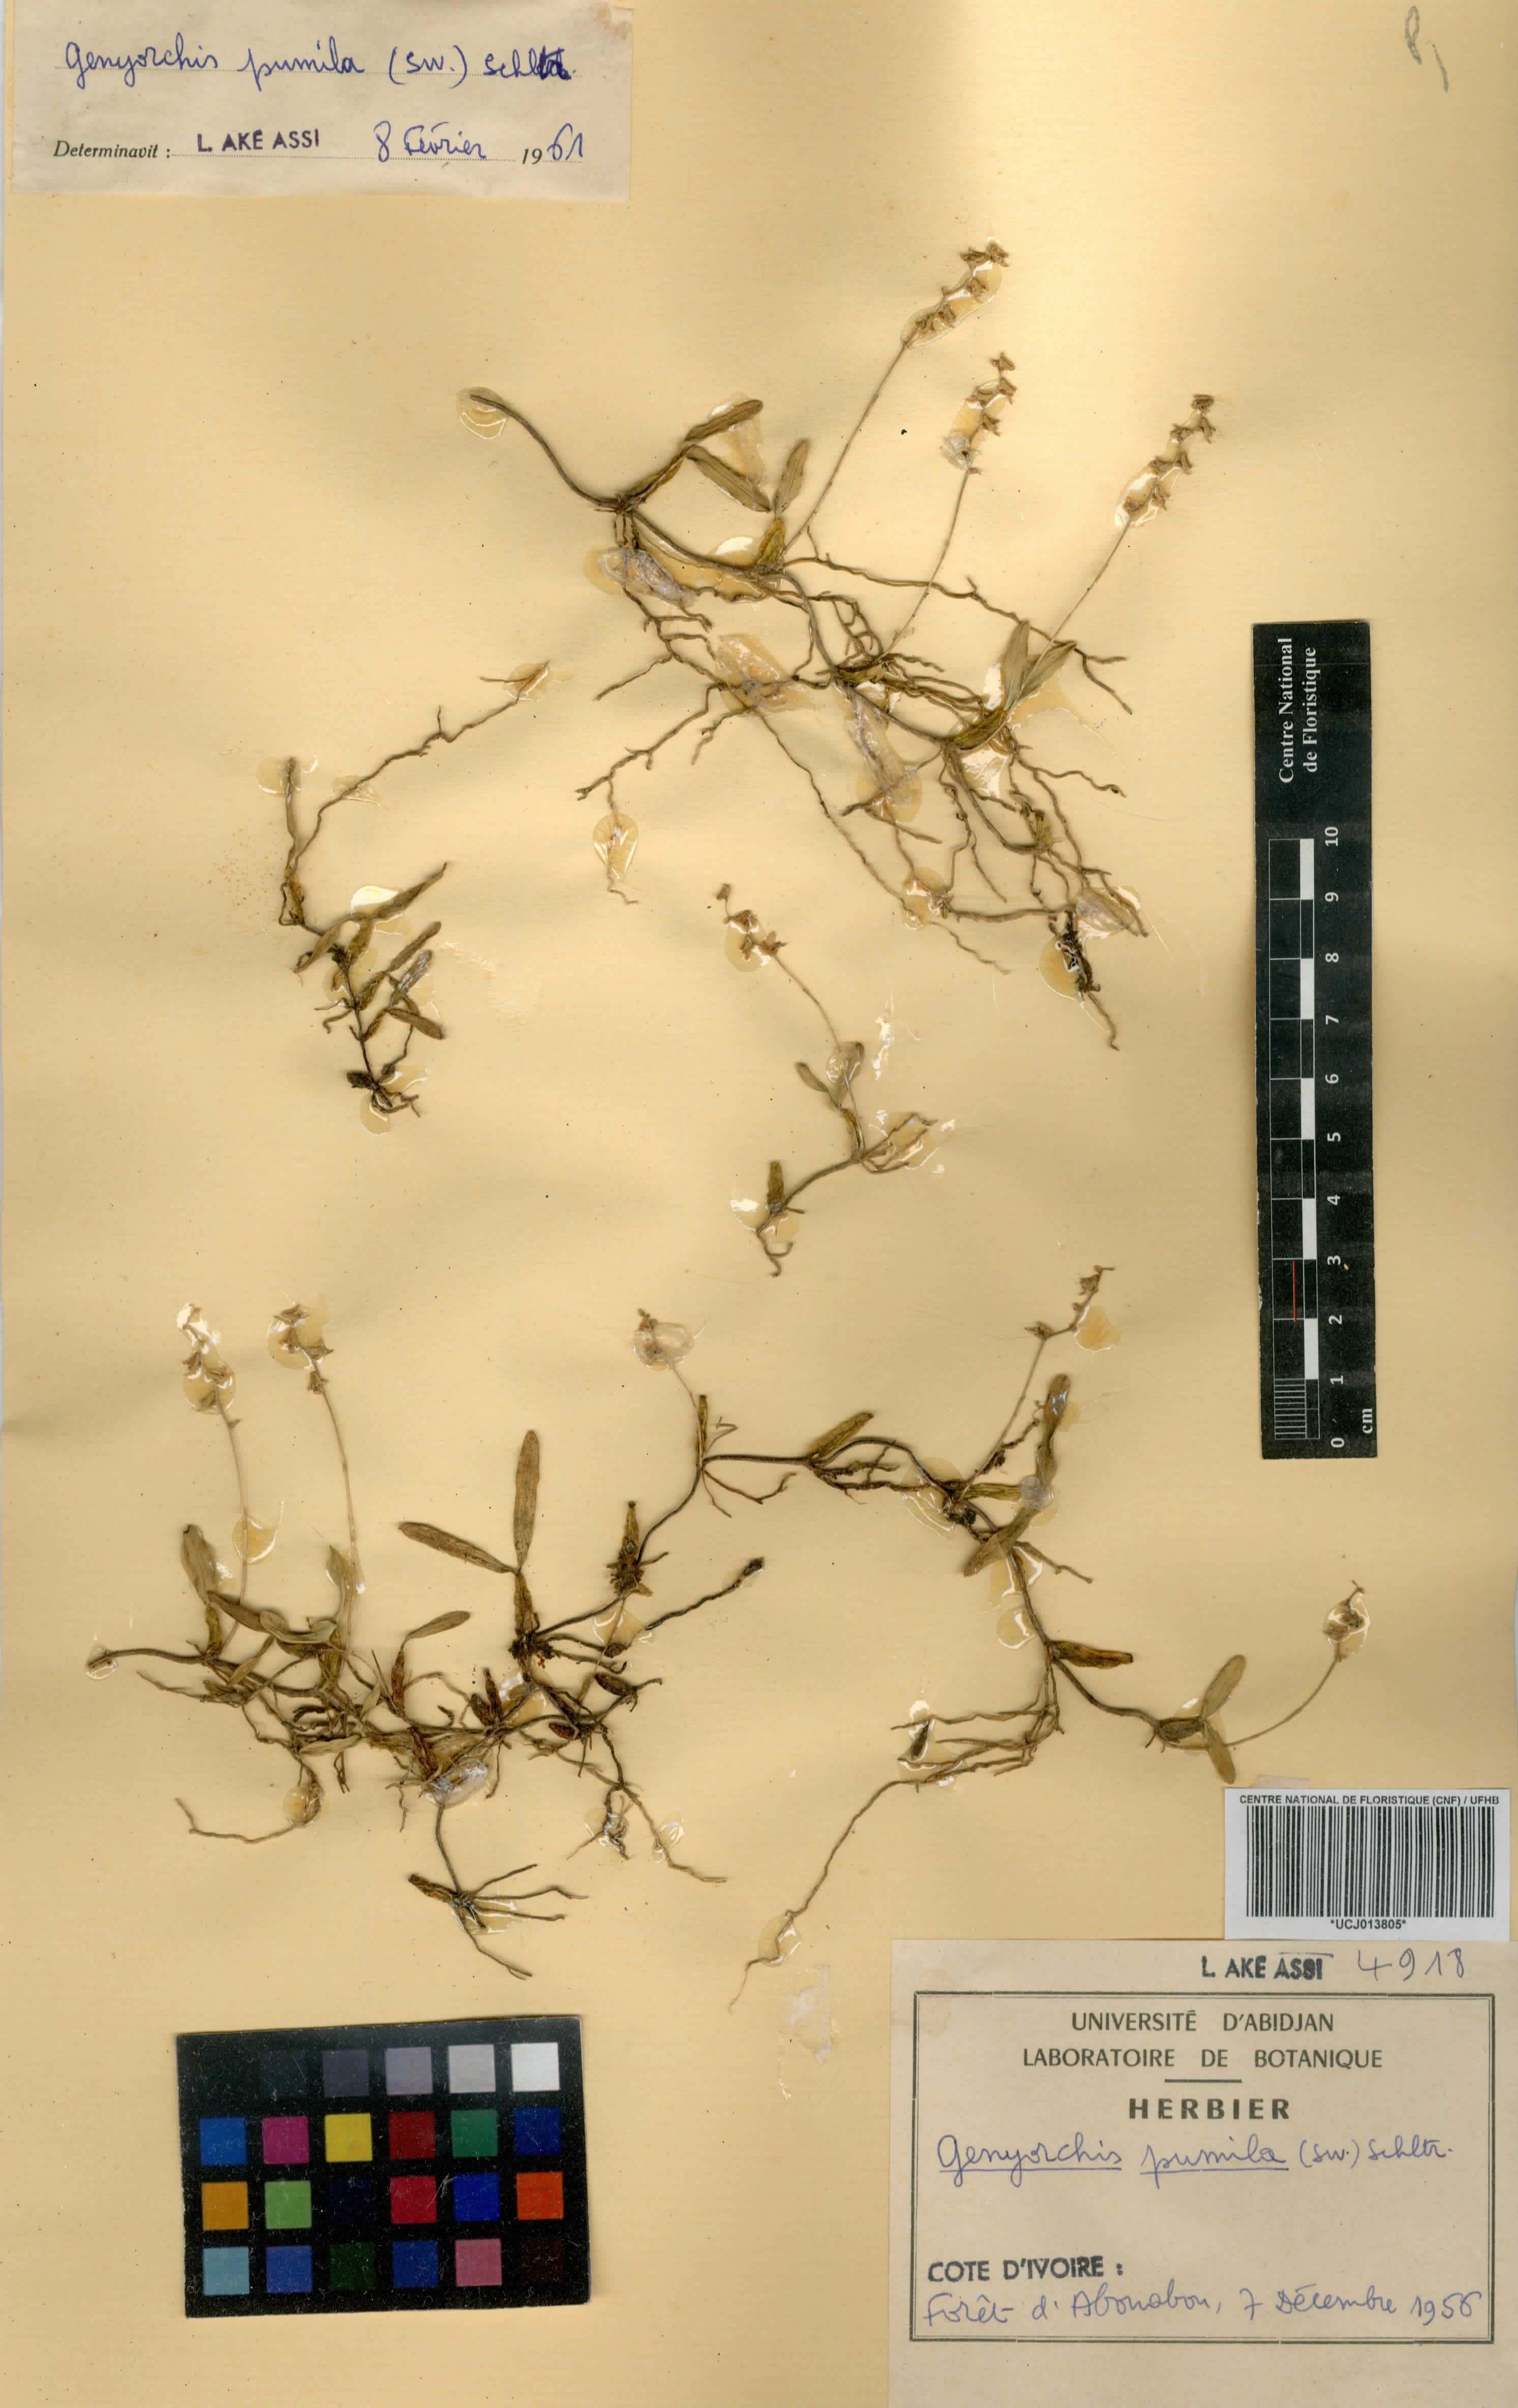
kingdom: Plantae
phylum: Tracheophyta
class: Liliopsida
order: Asparagales
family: Orchidaceae
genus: Bulbophyllum
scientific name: Bulbophyllum pumilum
